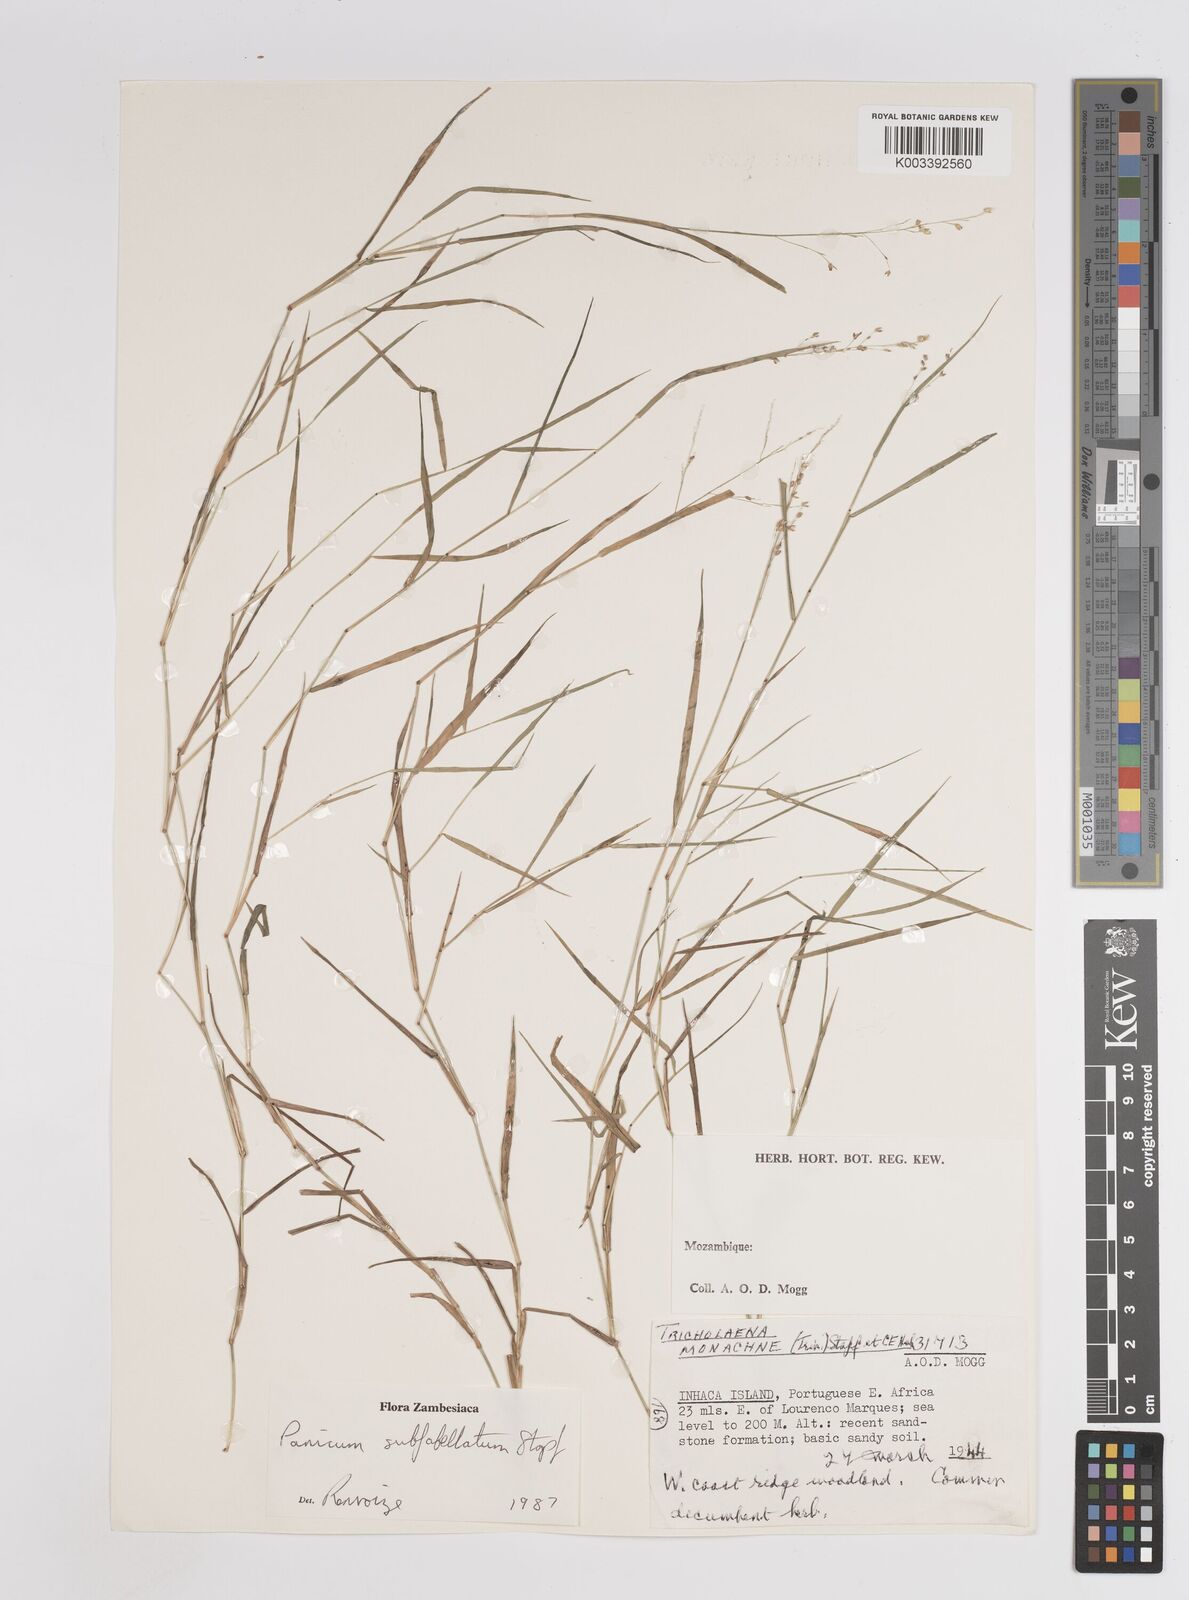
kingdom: Plantae
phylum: Tracheophyta
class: Liliopsida
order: Poales
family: Poaceae
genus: Panicum
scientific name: Panicum subflabellatum
